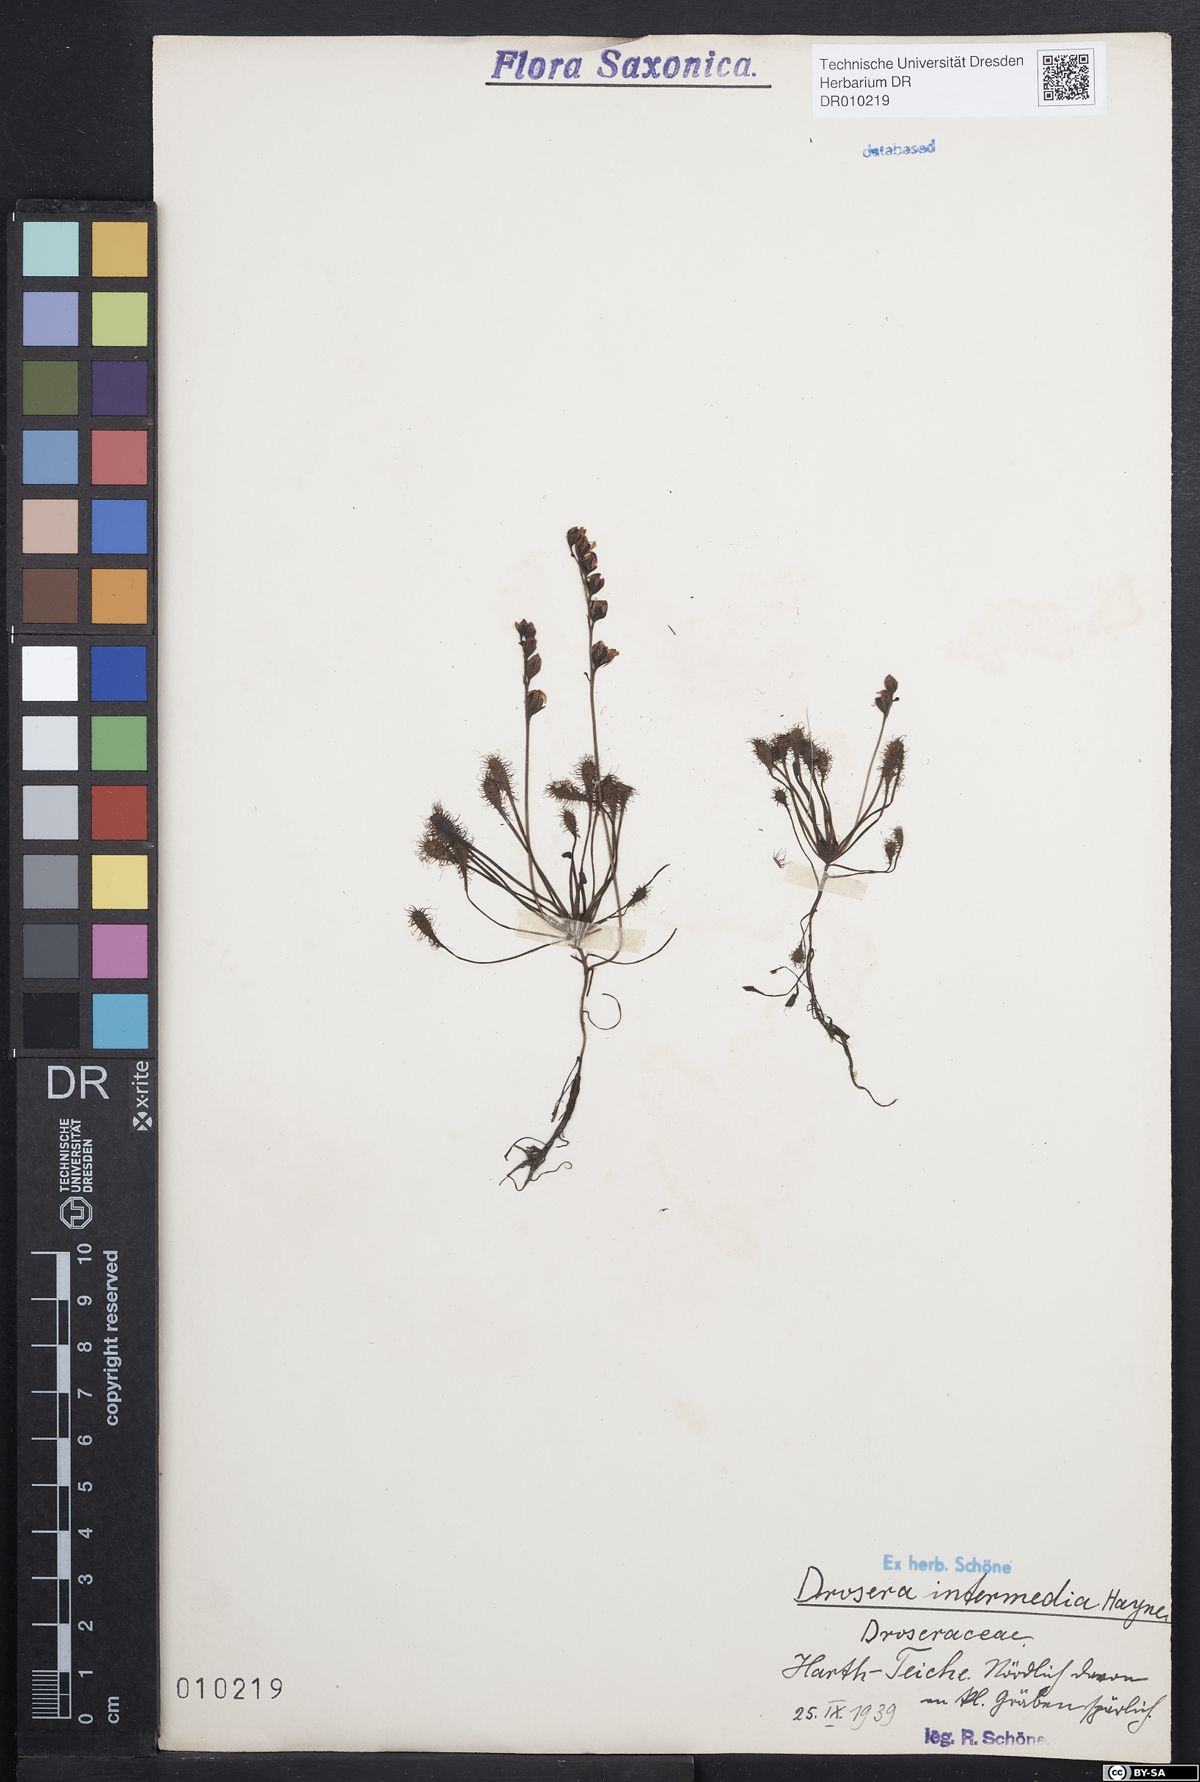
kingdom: Plantae
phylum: Tracheophyta
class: Magnoliopsida
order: Caryophyllales
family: Droseraceae
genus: Drosera
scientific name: Drosera intermedia
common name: Oblong-leaved sundew
